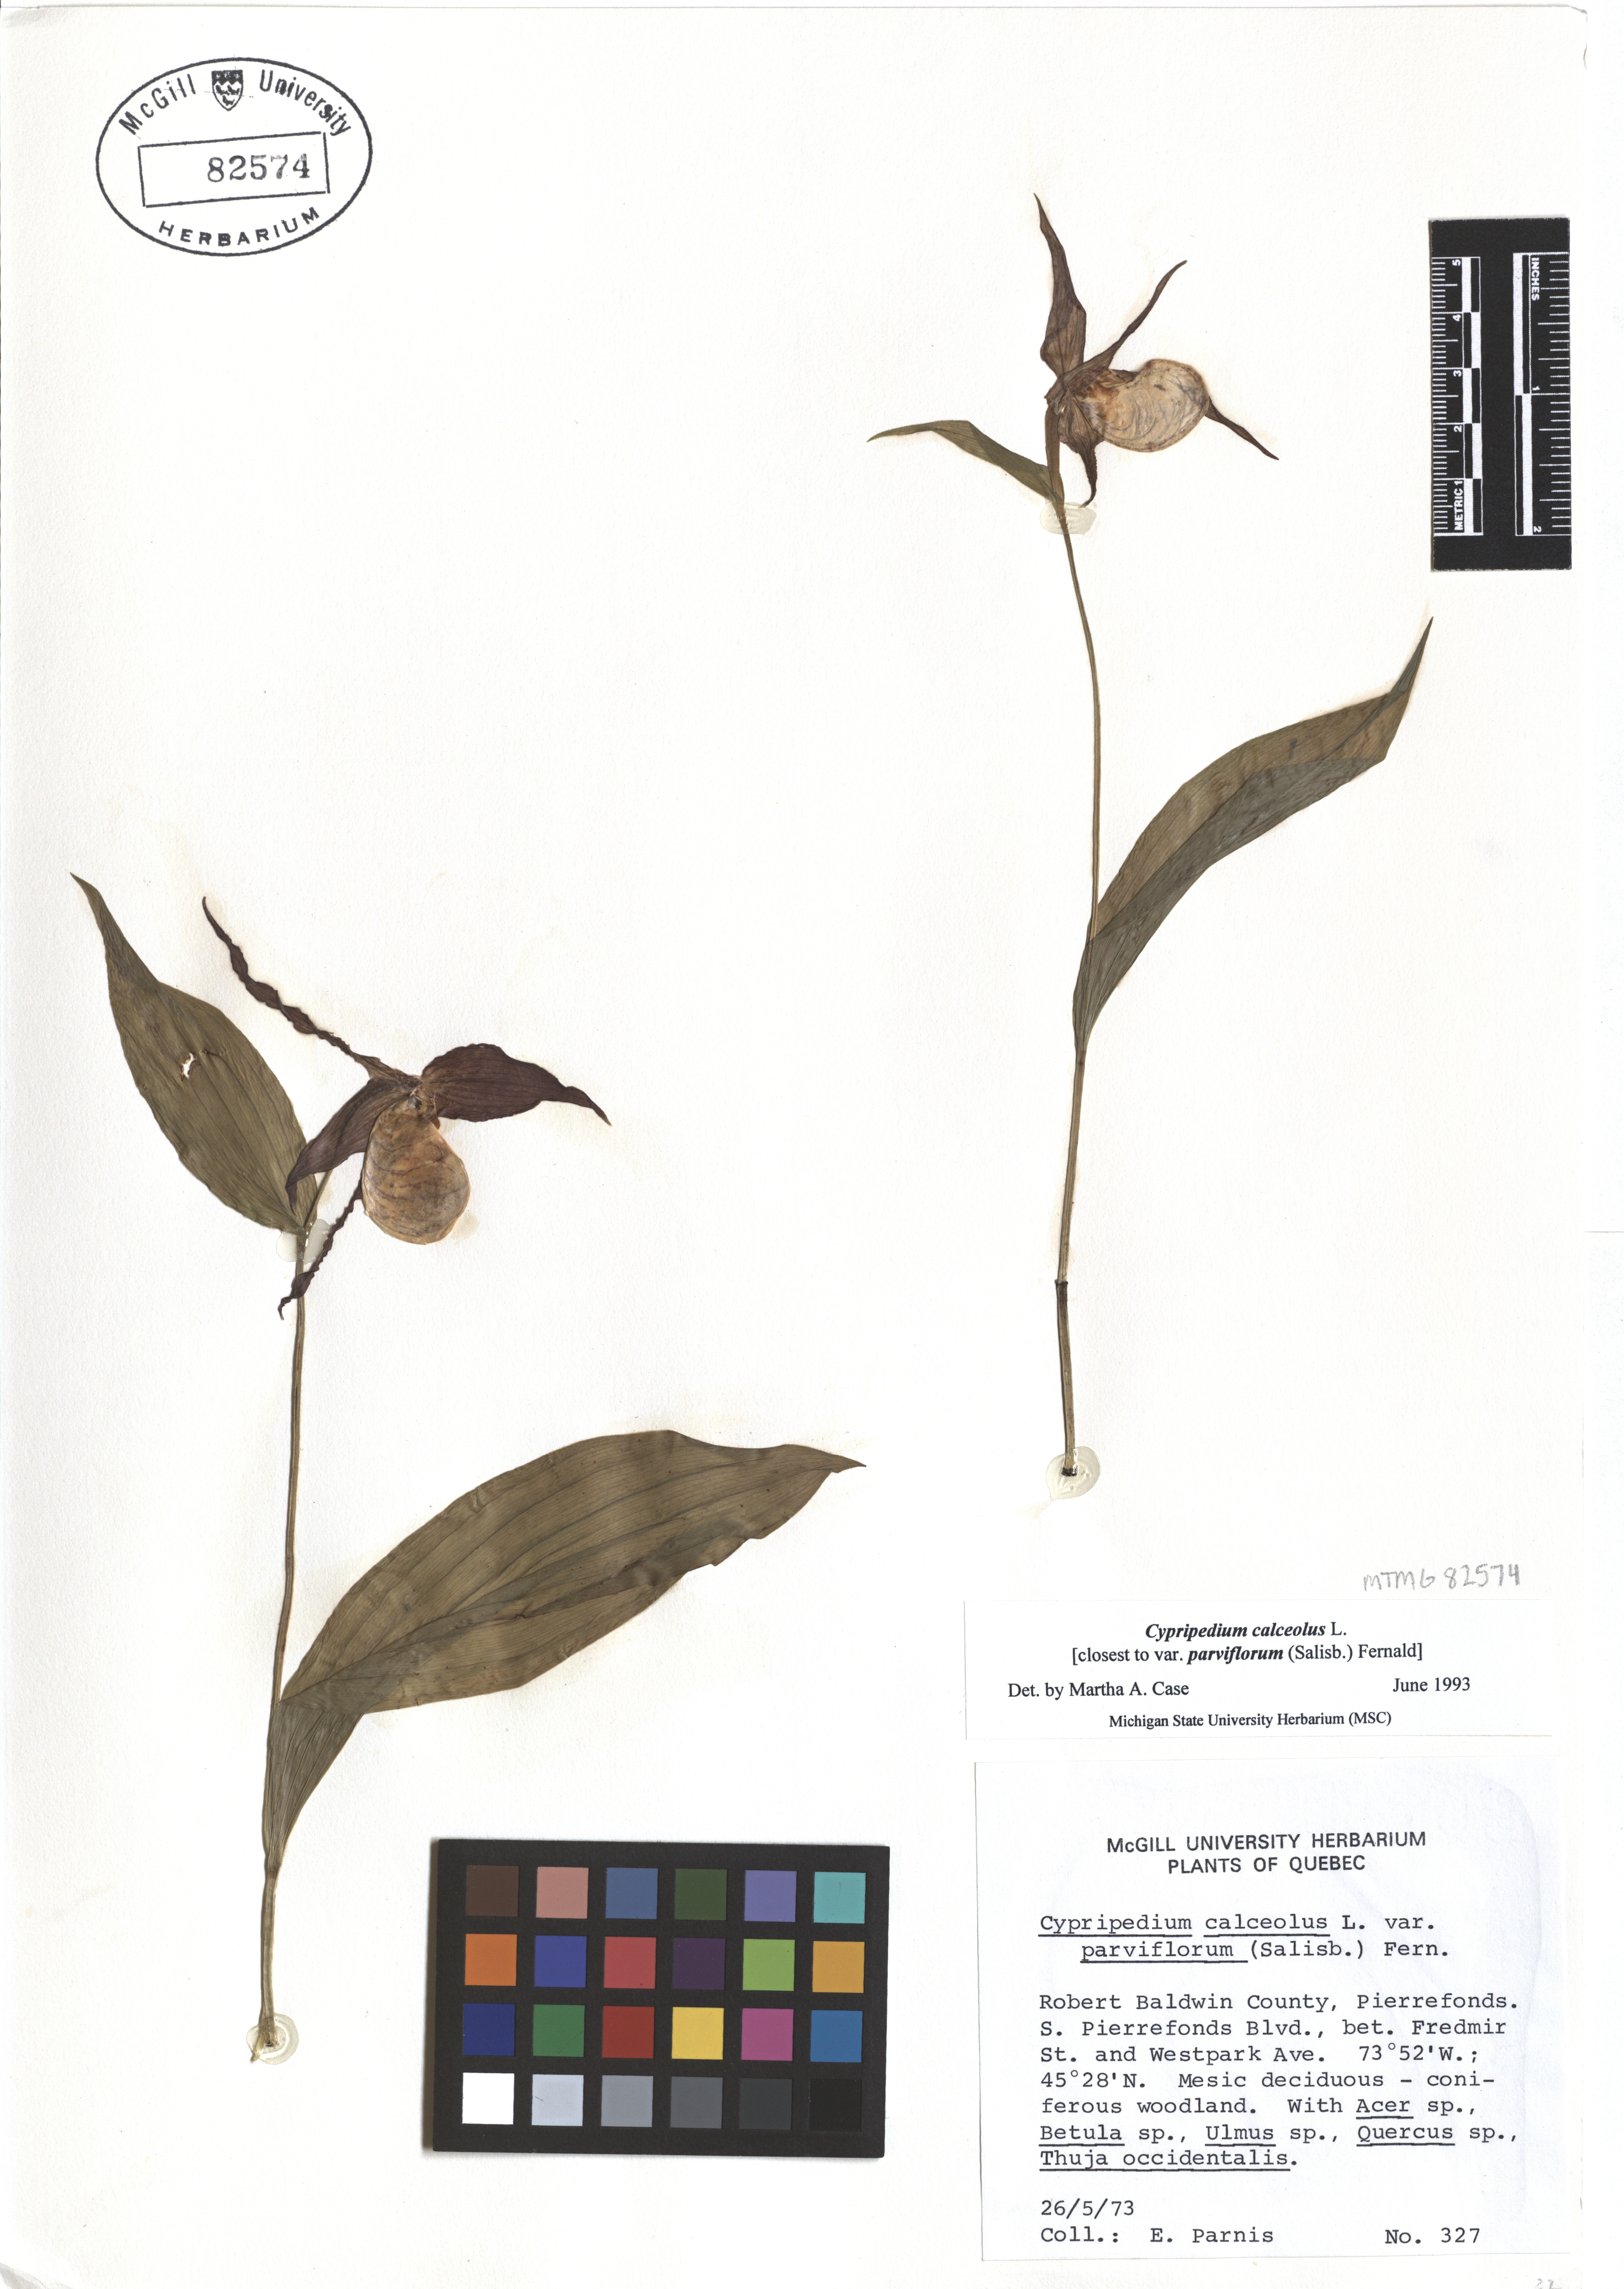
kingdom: Plantae
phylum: Tracheophyta
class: Liliopsida
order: Asparagales
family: Orchidaceae
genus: Cypripedium
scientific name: Cypripedium calceolus
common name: Lady's-slipper
